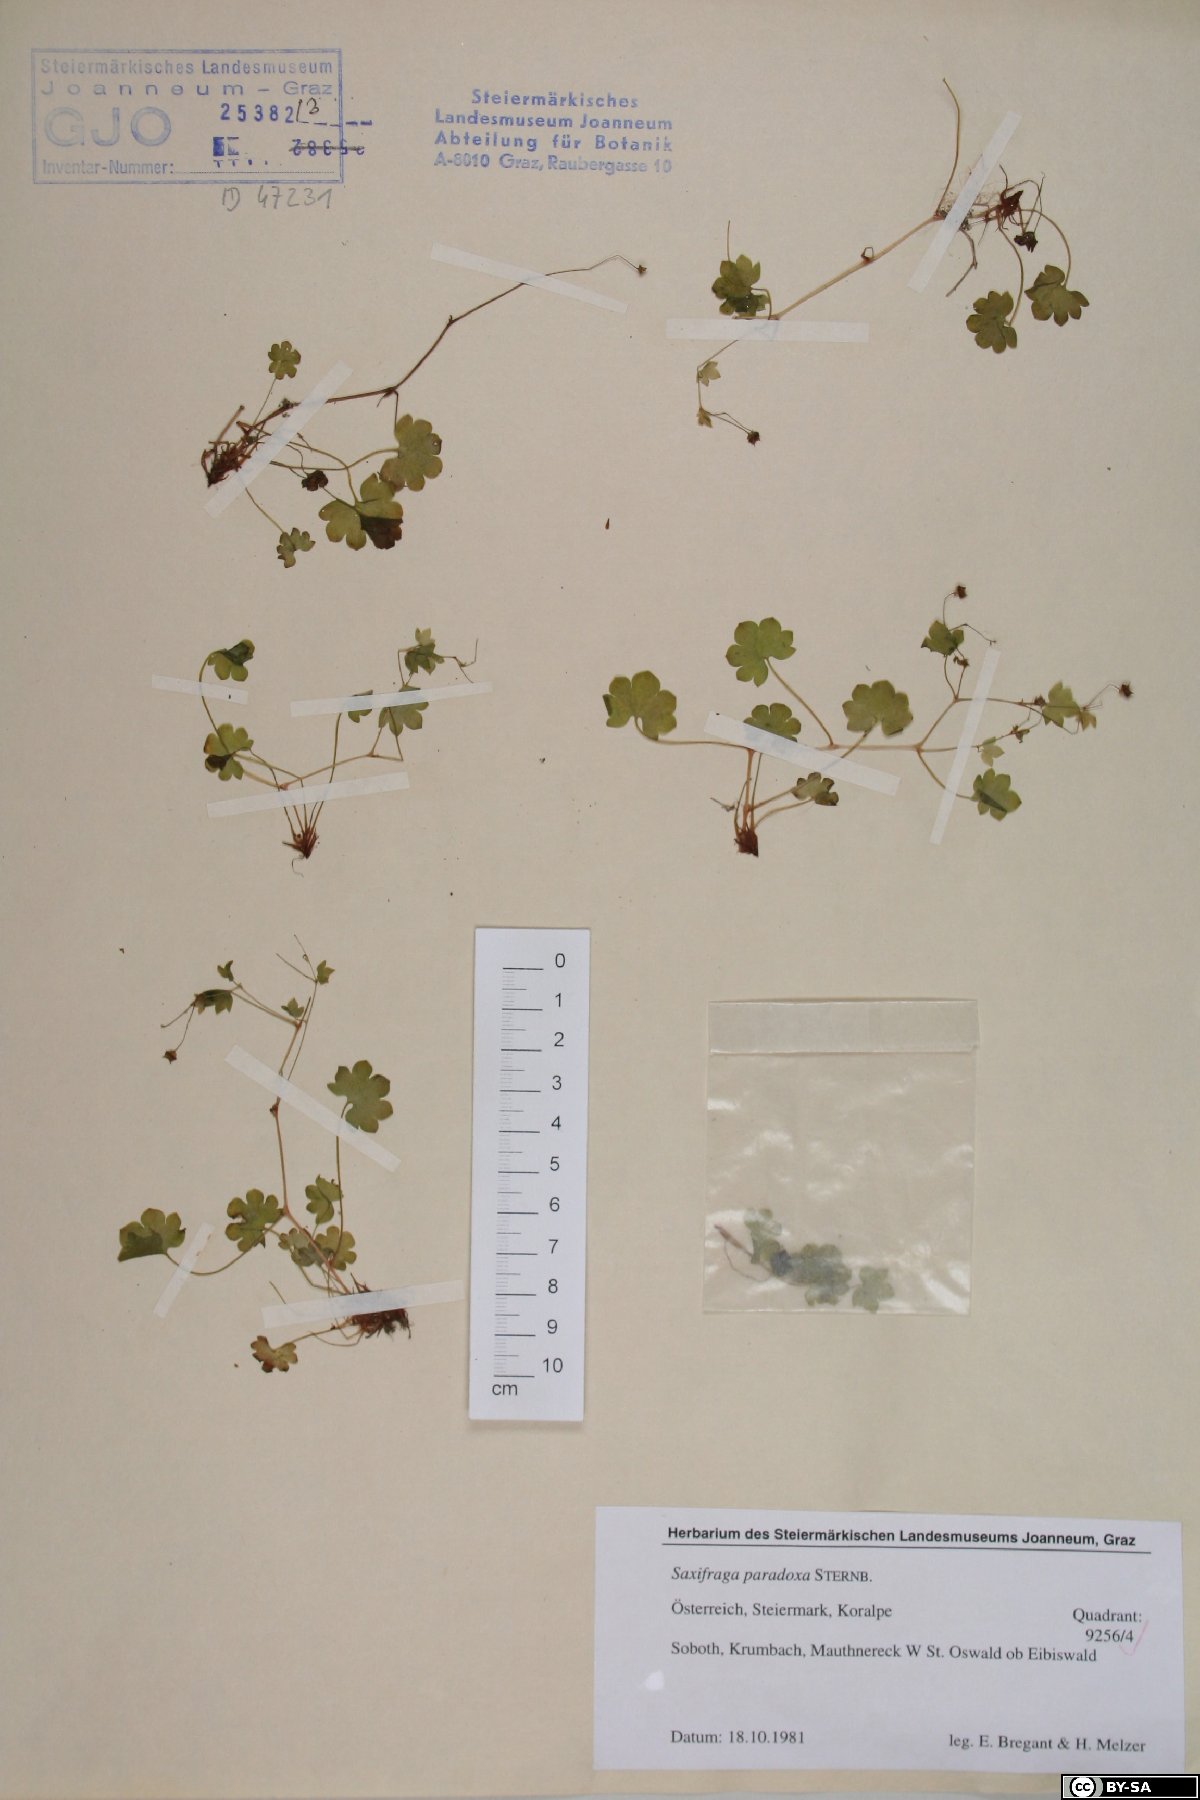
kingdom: Plantae
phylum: Tracheophyta
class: Magnoliopsida
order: Saxifragales
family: Saxifragaceae
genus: Saxifraga
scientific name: Saxifraga paradoxa
